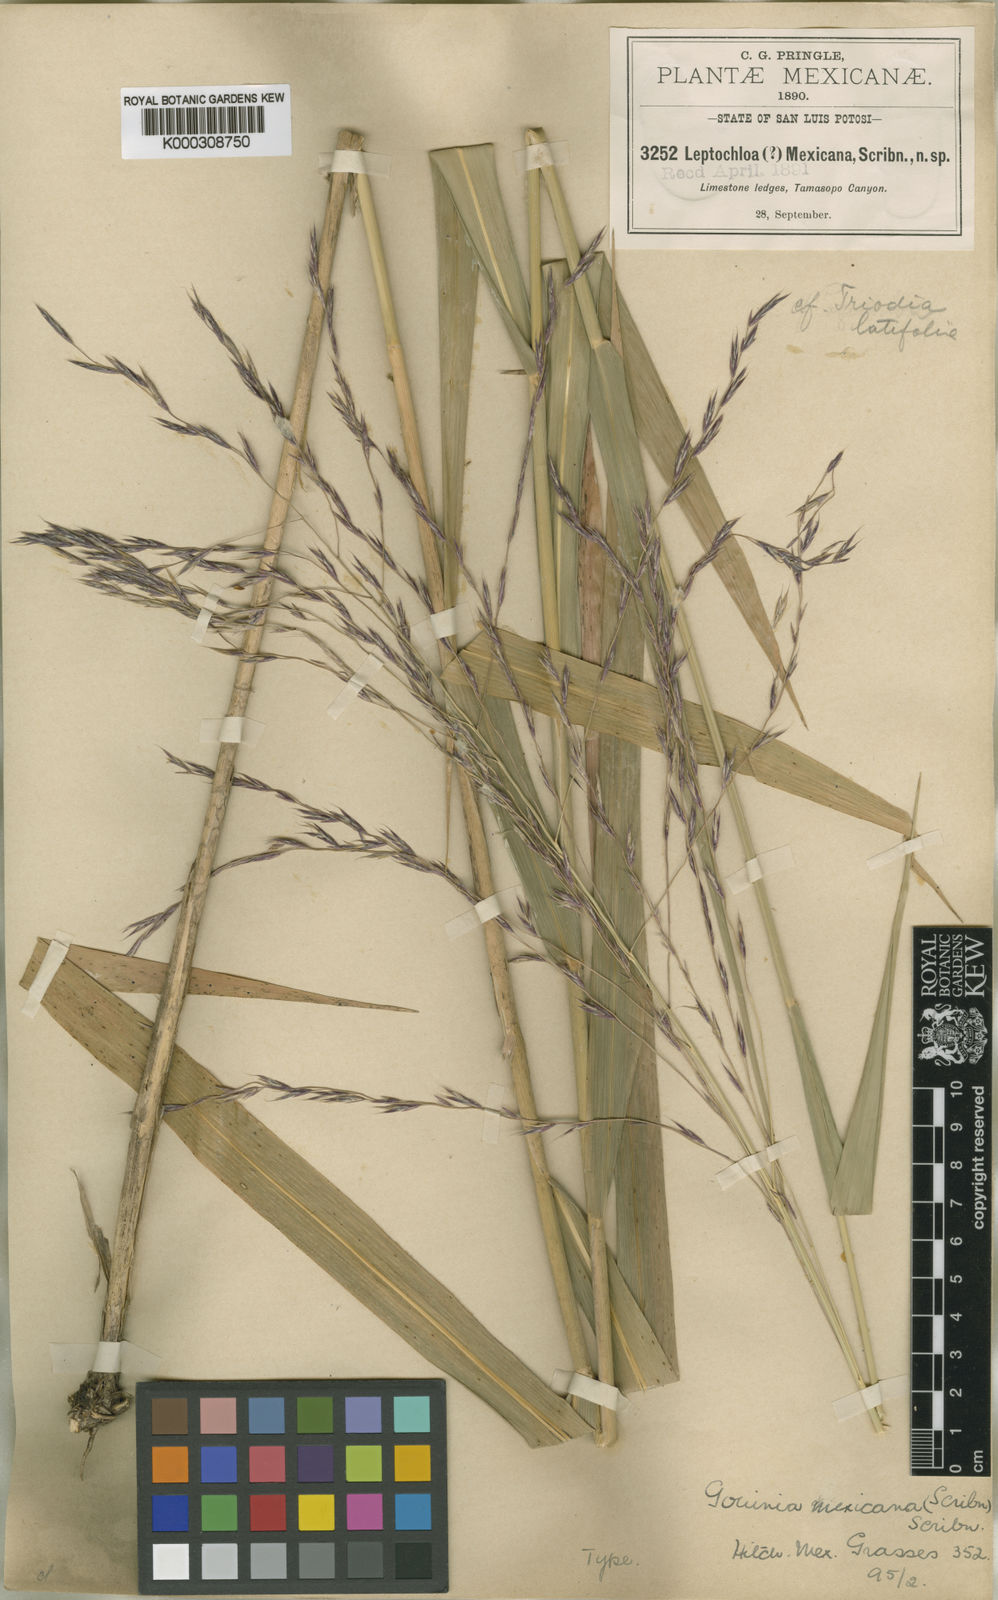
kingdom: Plantae
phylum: Tracheophyta
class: Liliopsida
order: Poales
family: Poaceae
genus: Gouinia
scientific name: Gouinia mexicana
